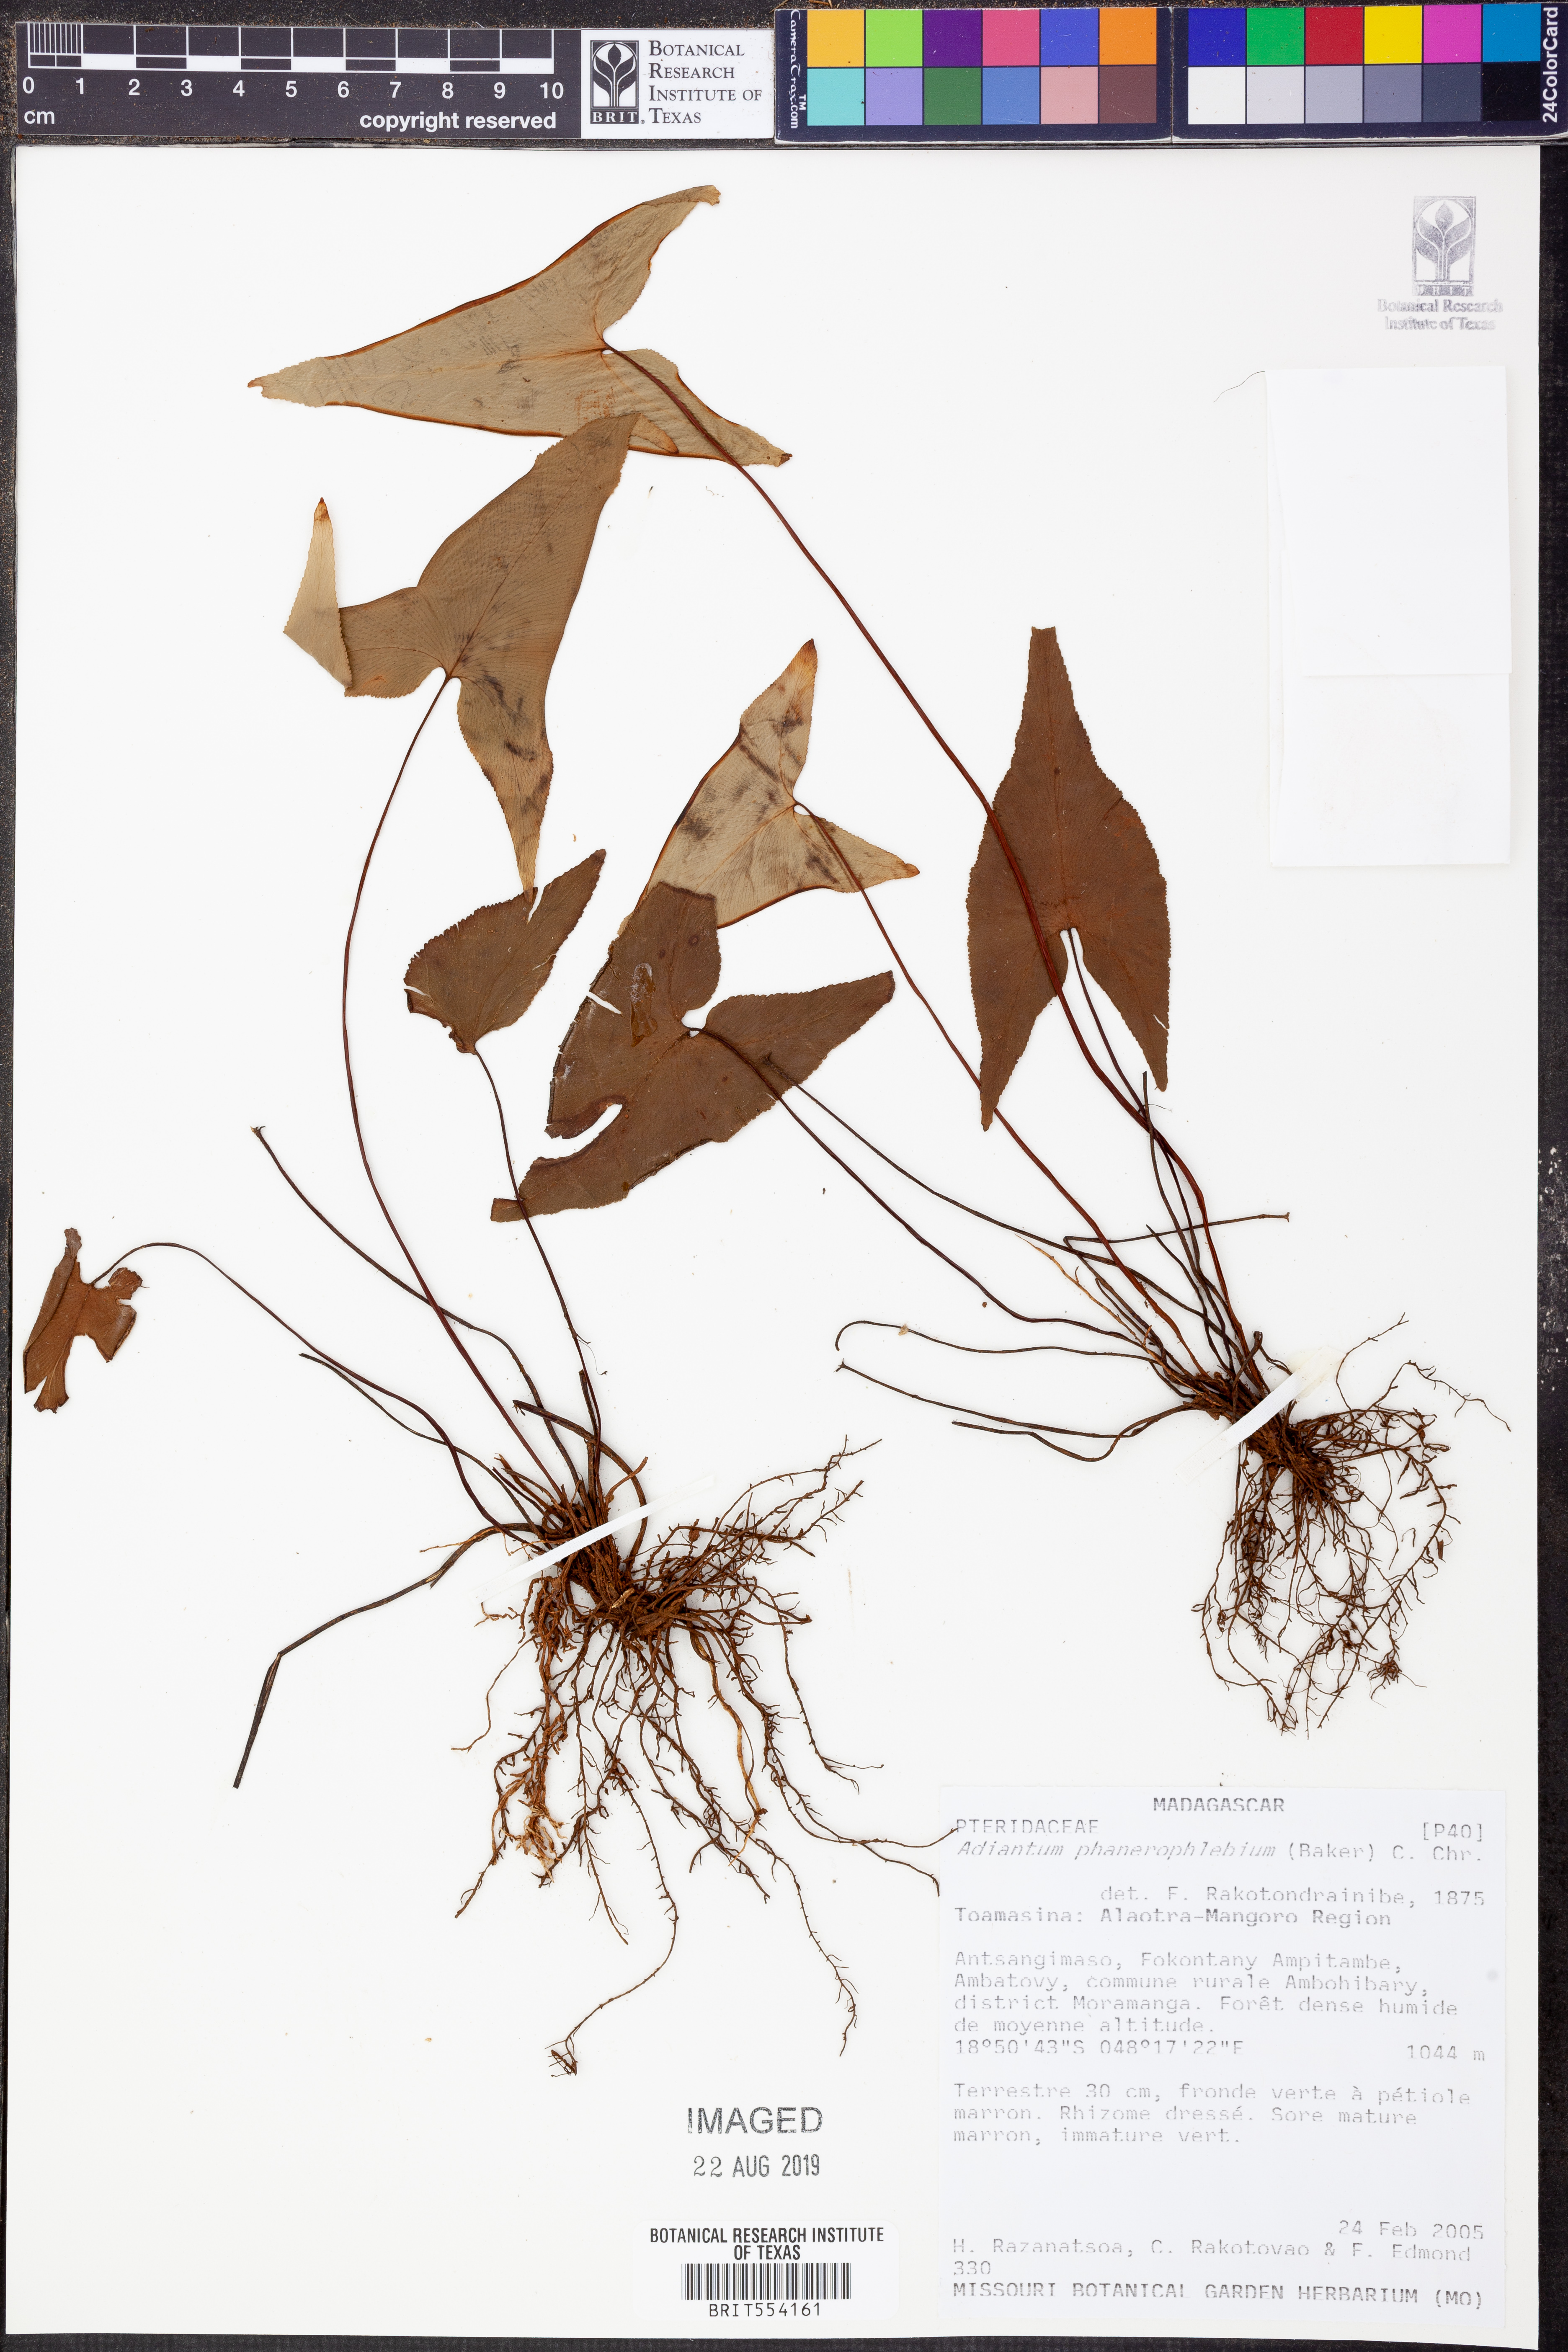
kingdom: Plantae
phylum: Tracheophyta
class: Polypodiopsida
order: Polypodiales
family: Pteridaceae
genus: Adiantum
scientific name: Adiantum phanerophlebium
